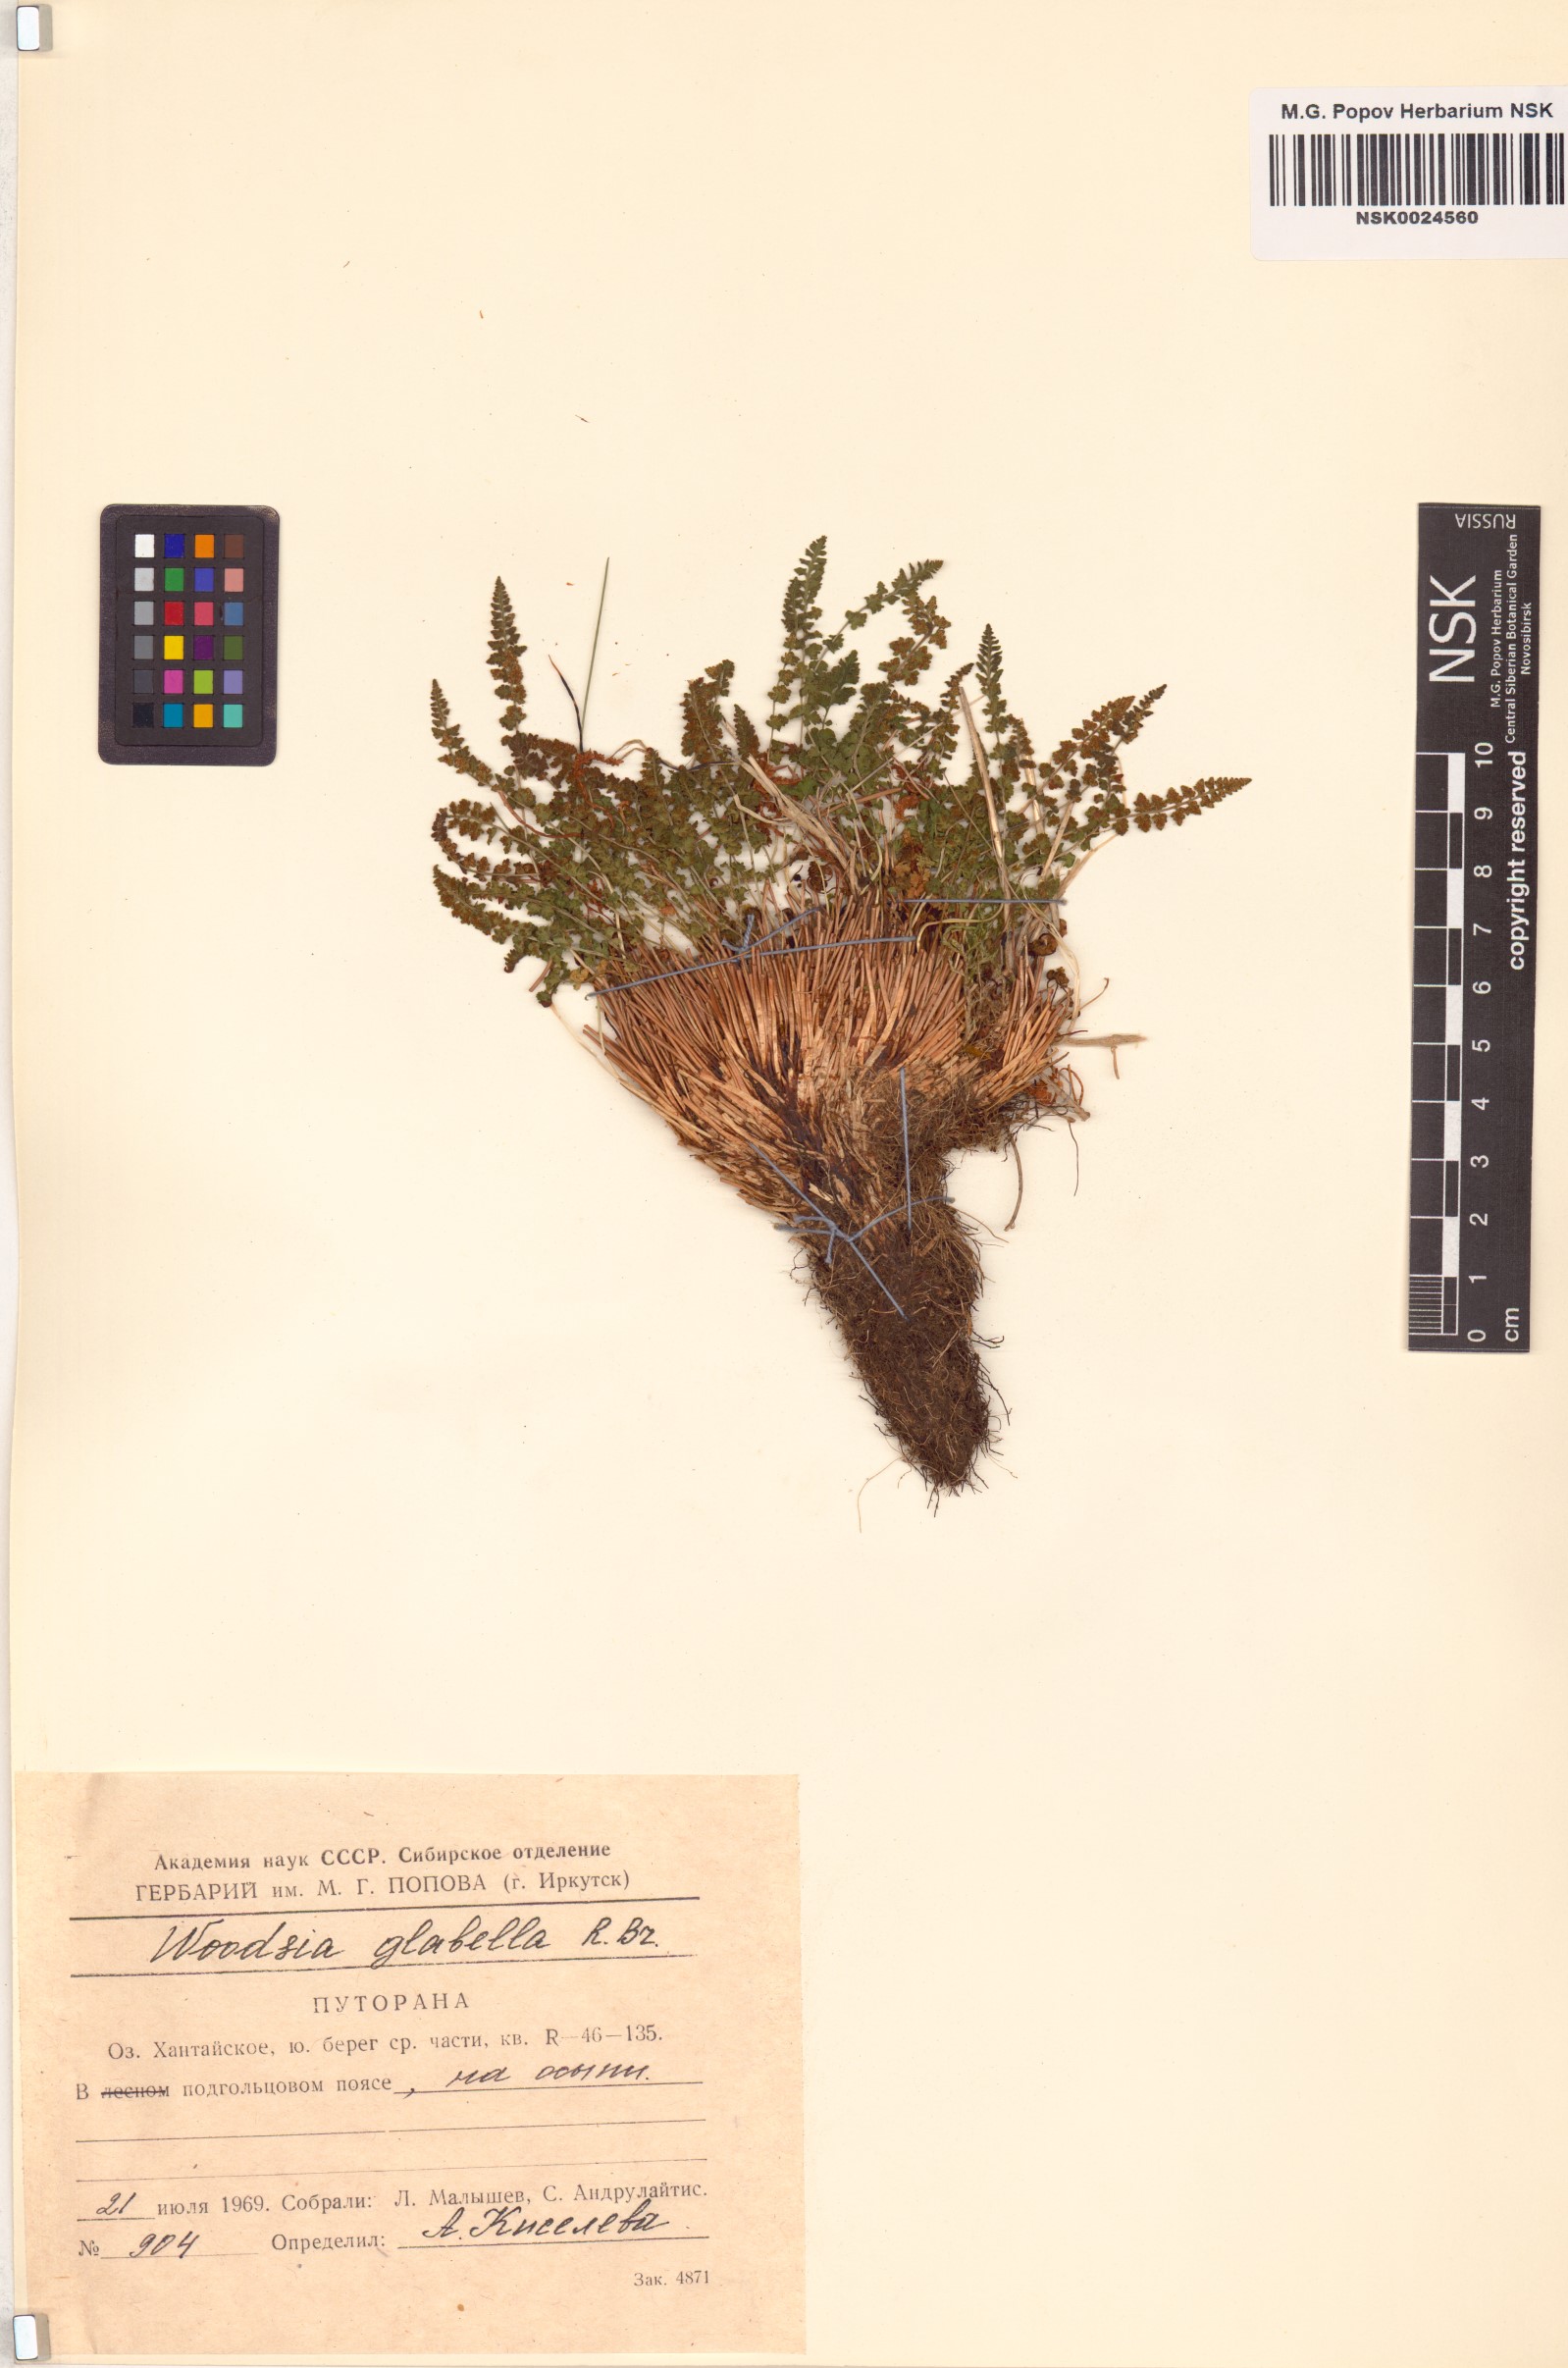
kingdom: Plantae
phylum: Tracheophyta
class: Polypodiopsida
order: Polypodiales
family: Woodsiaceae
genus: Woodsia
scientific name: Woodsia glabella
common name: Smooth woodsia
